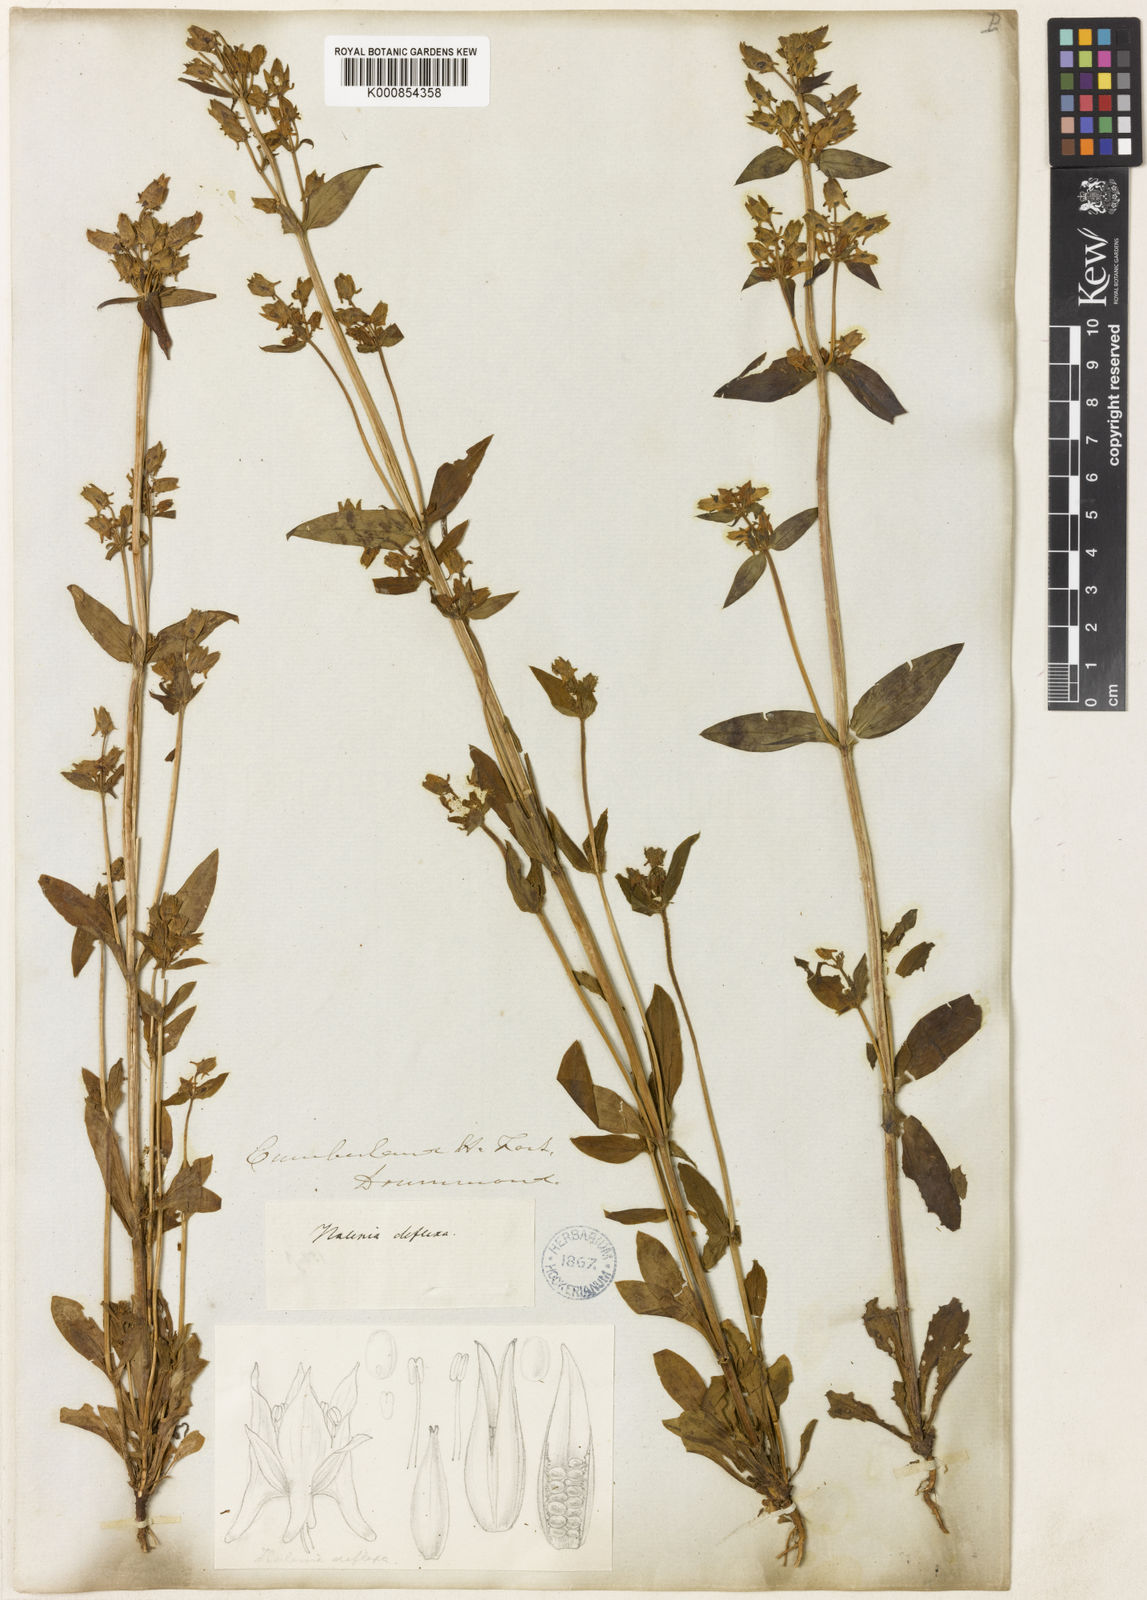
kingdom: Plantae
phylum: Tracheophyta
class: Magnoliopsida
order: Gentianales
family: Gentianaceae
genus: Halenia
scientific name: Halenia deflexa
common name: American spurred gentian
